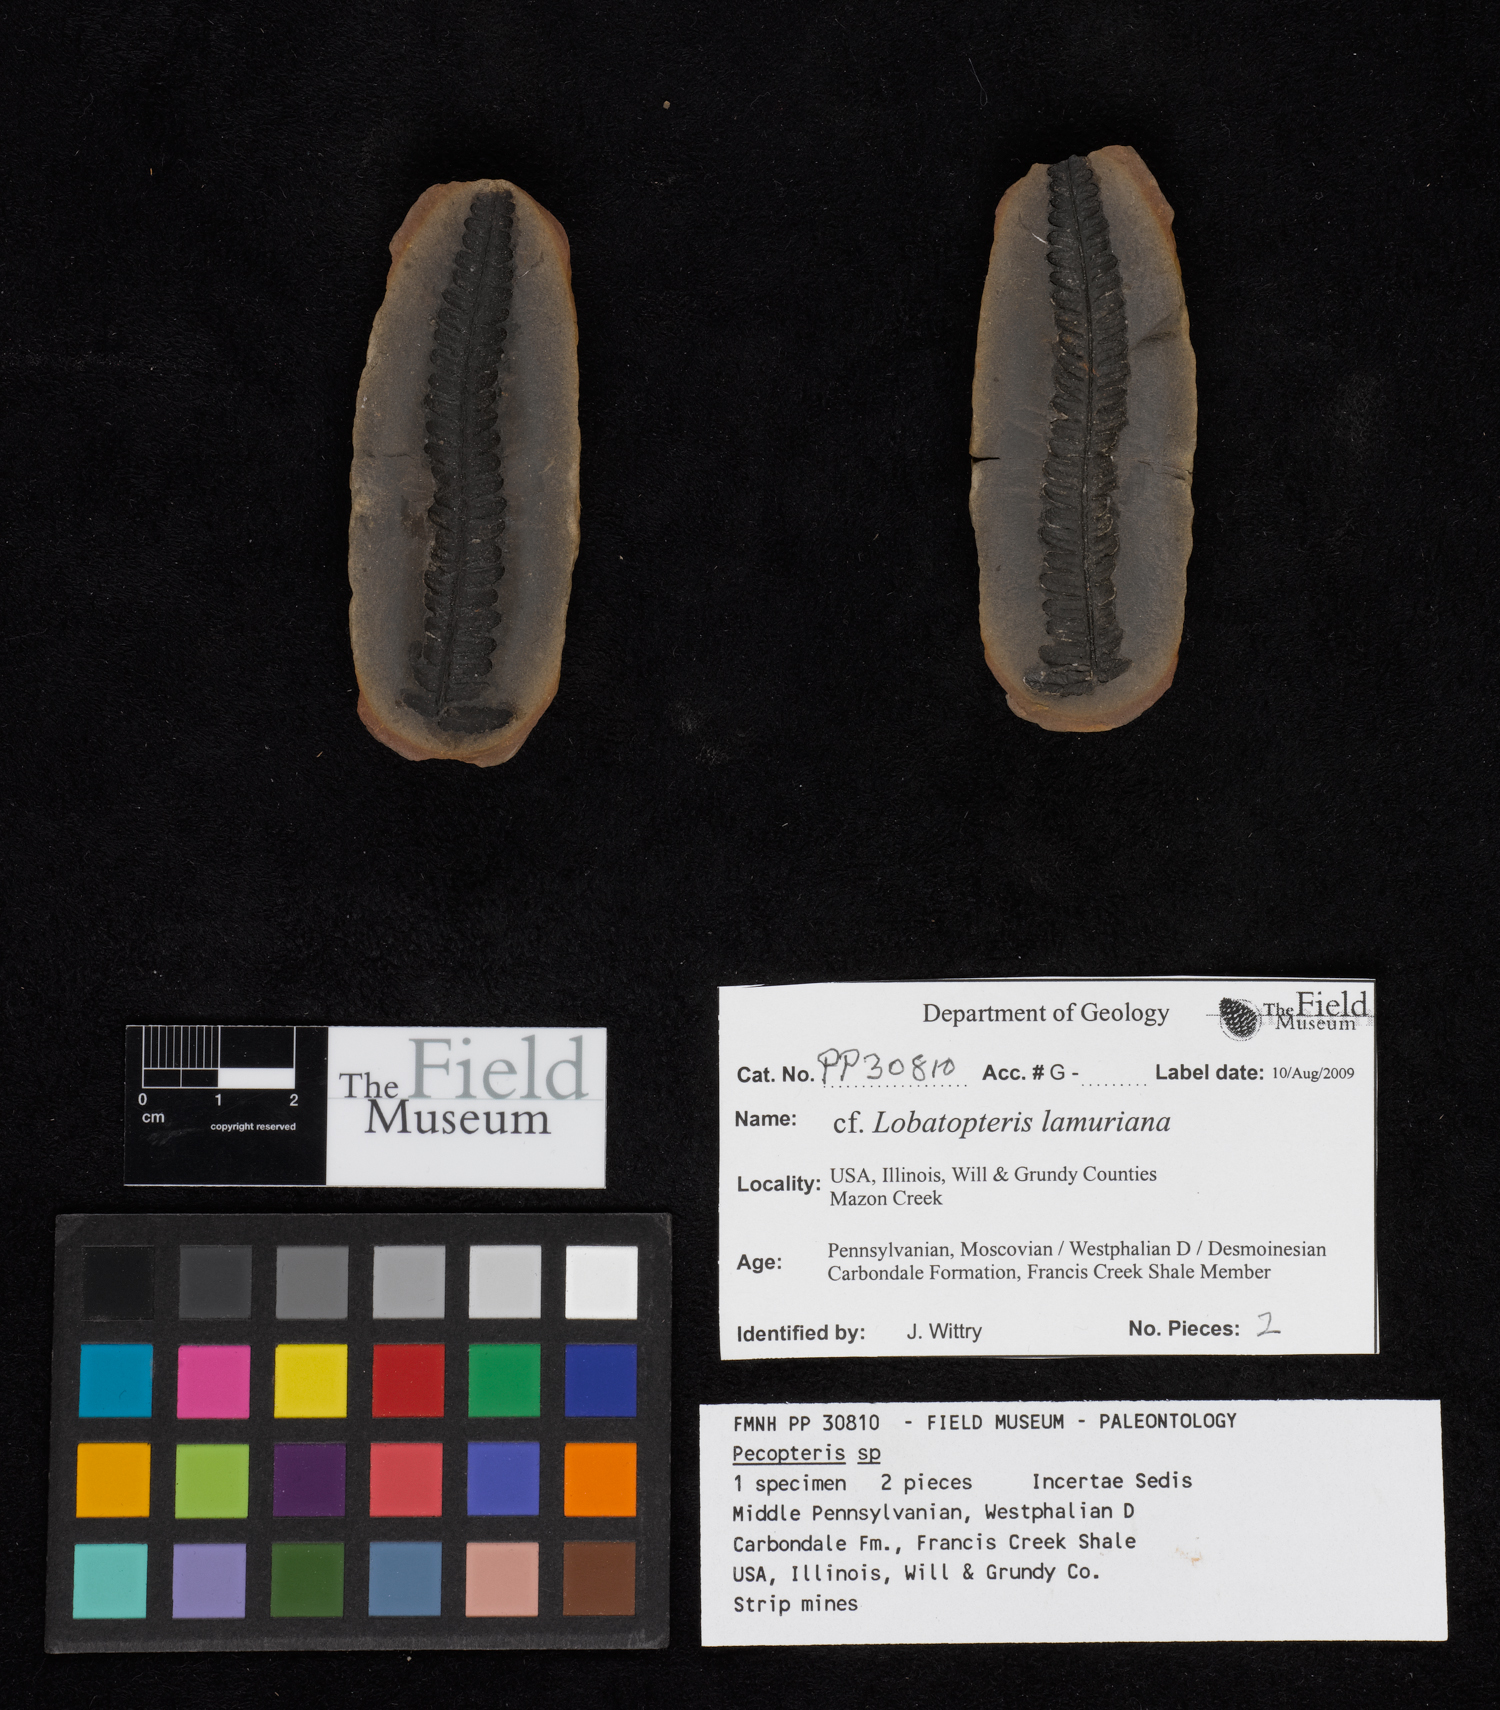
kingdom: Plantae
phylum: Tracheophyta
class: Polypodiopsida
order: Marattiales
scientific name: Marattiales
